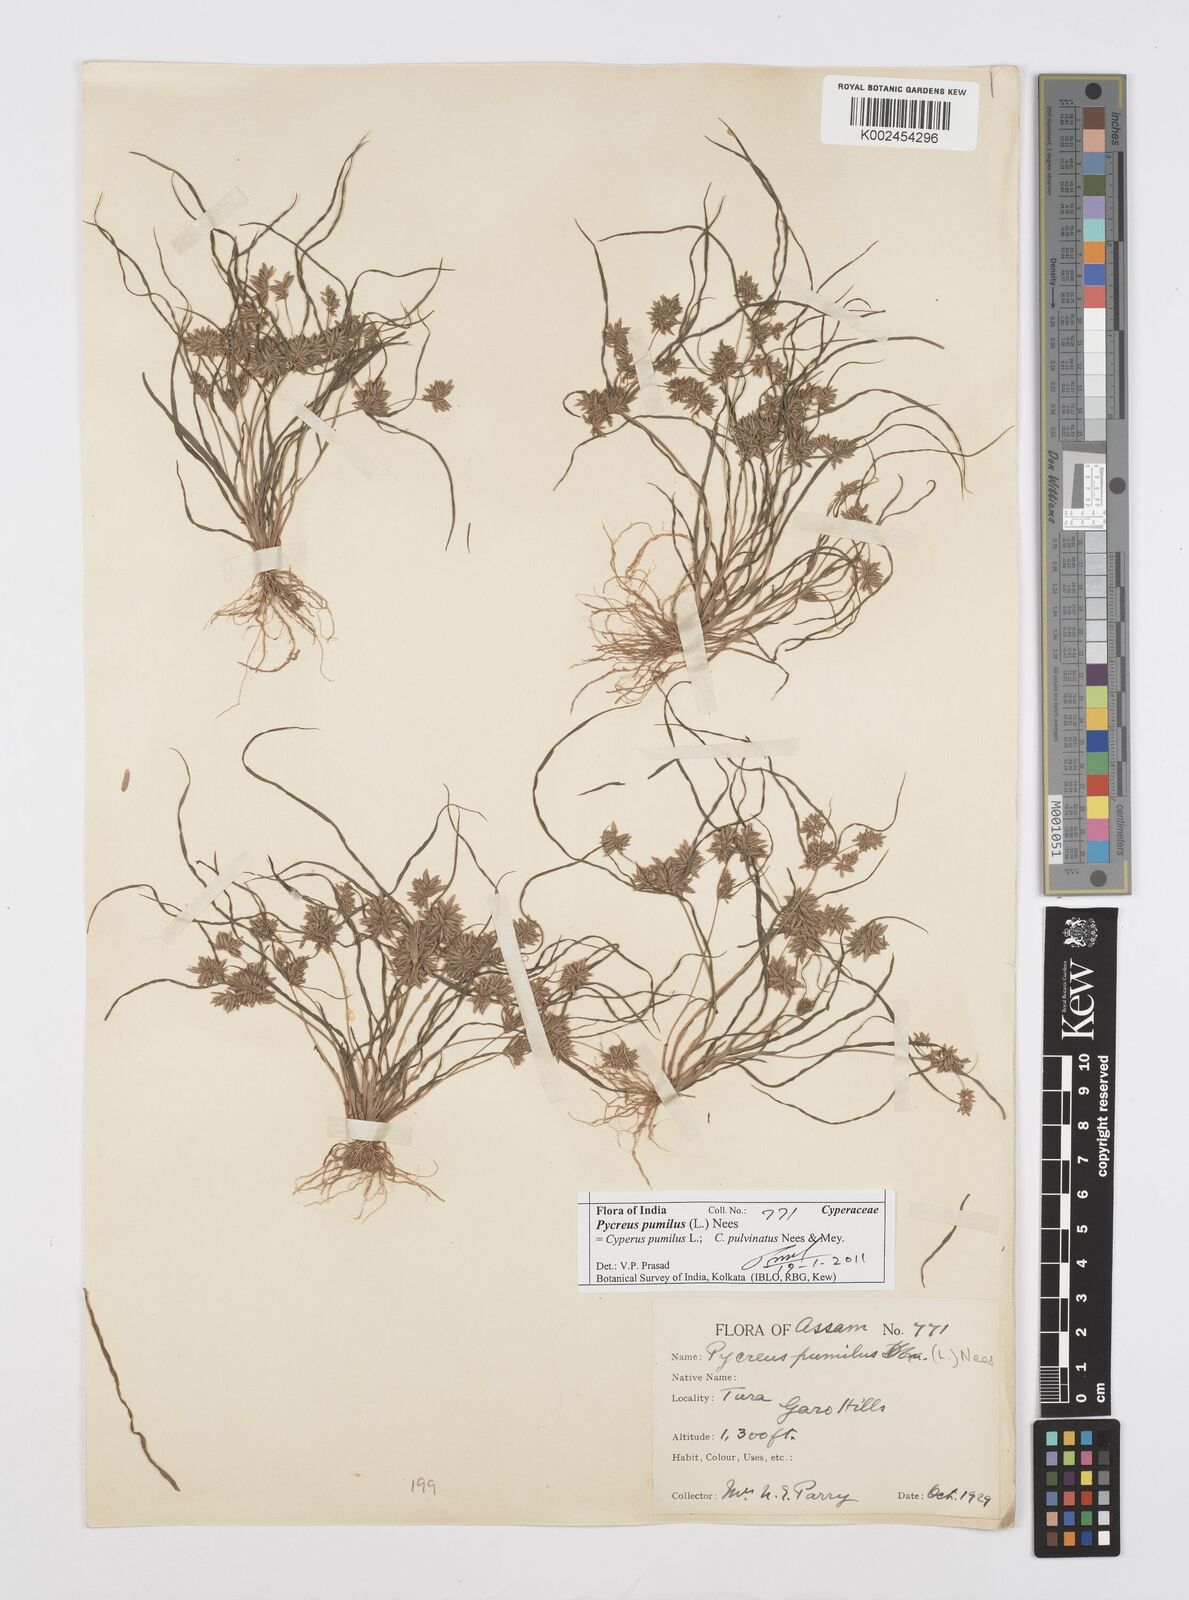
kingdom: Plantae
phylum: Tracheophyta
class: Liliopsida
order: Poales
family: Cyperaceae
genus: Cyperus
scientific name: Cyperus pumilus
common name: Low flatsedge
